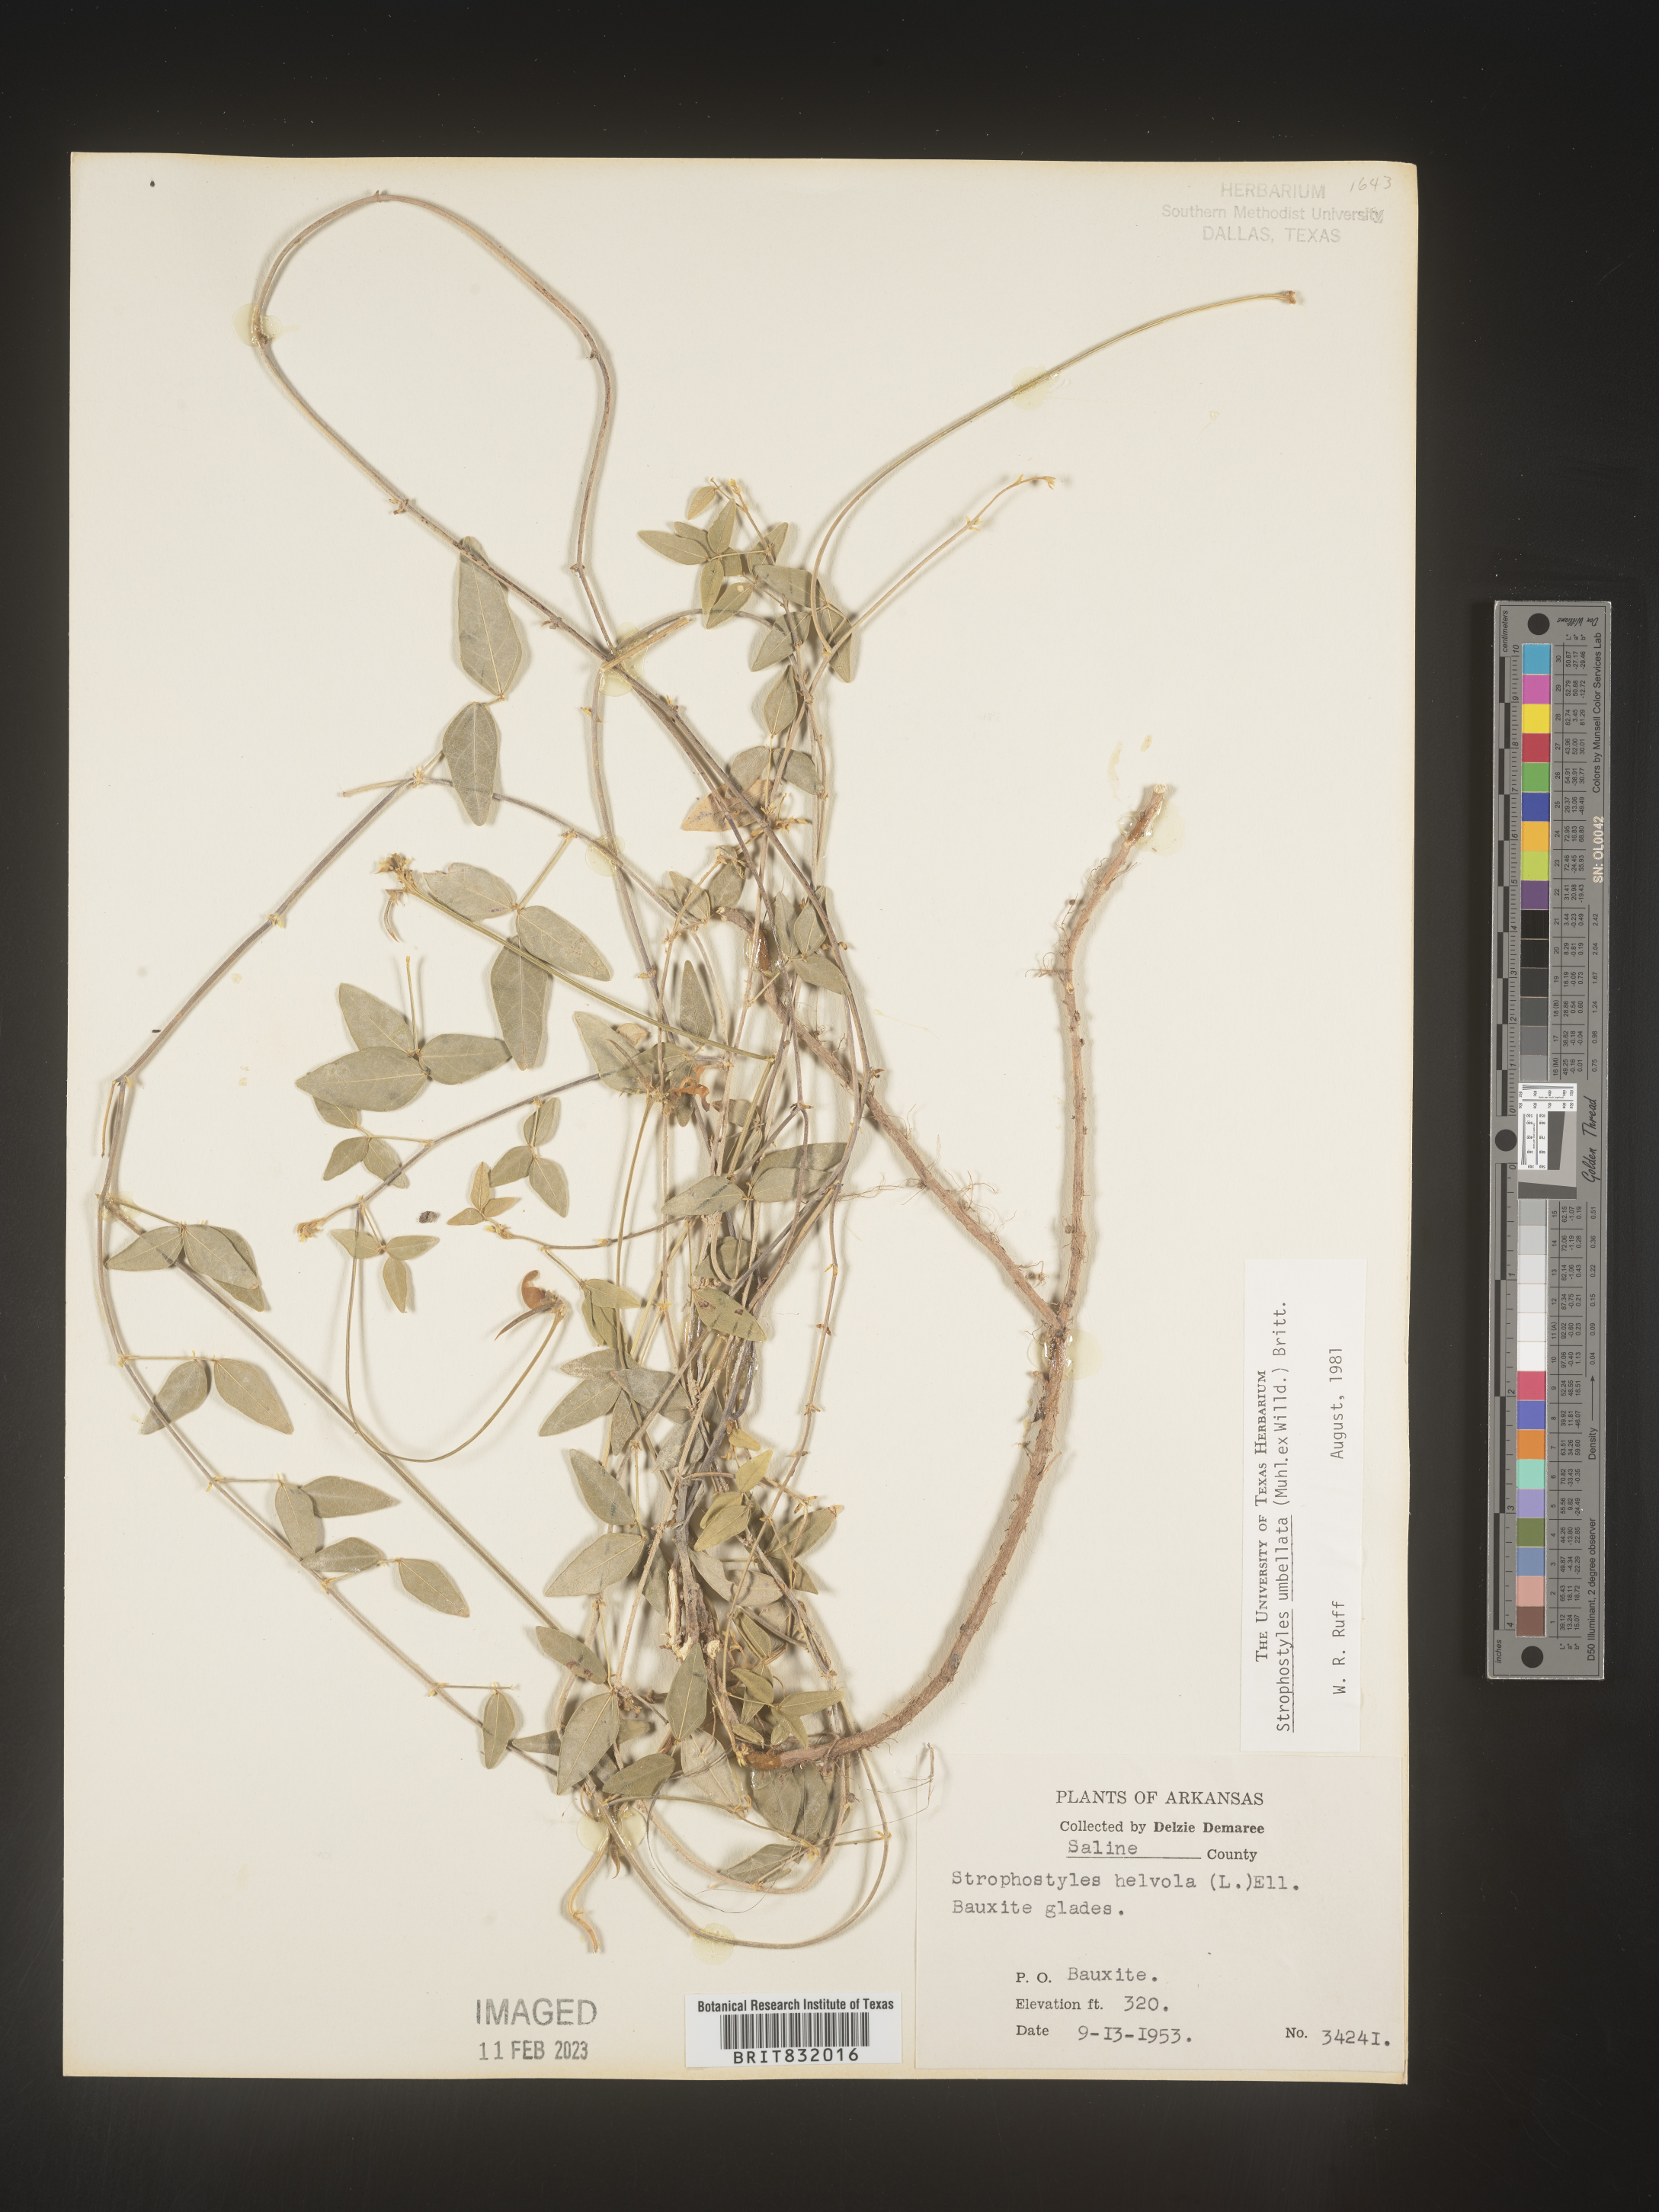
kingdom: Plantae
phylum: Tracheophyta
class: Magnoliopsida
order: Fabales
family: Fabaceae
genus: Strophostyles
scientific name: Strophostyles umbellata
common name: Perennial wild bean
